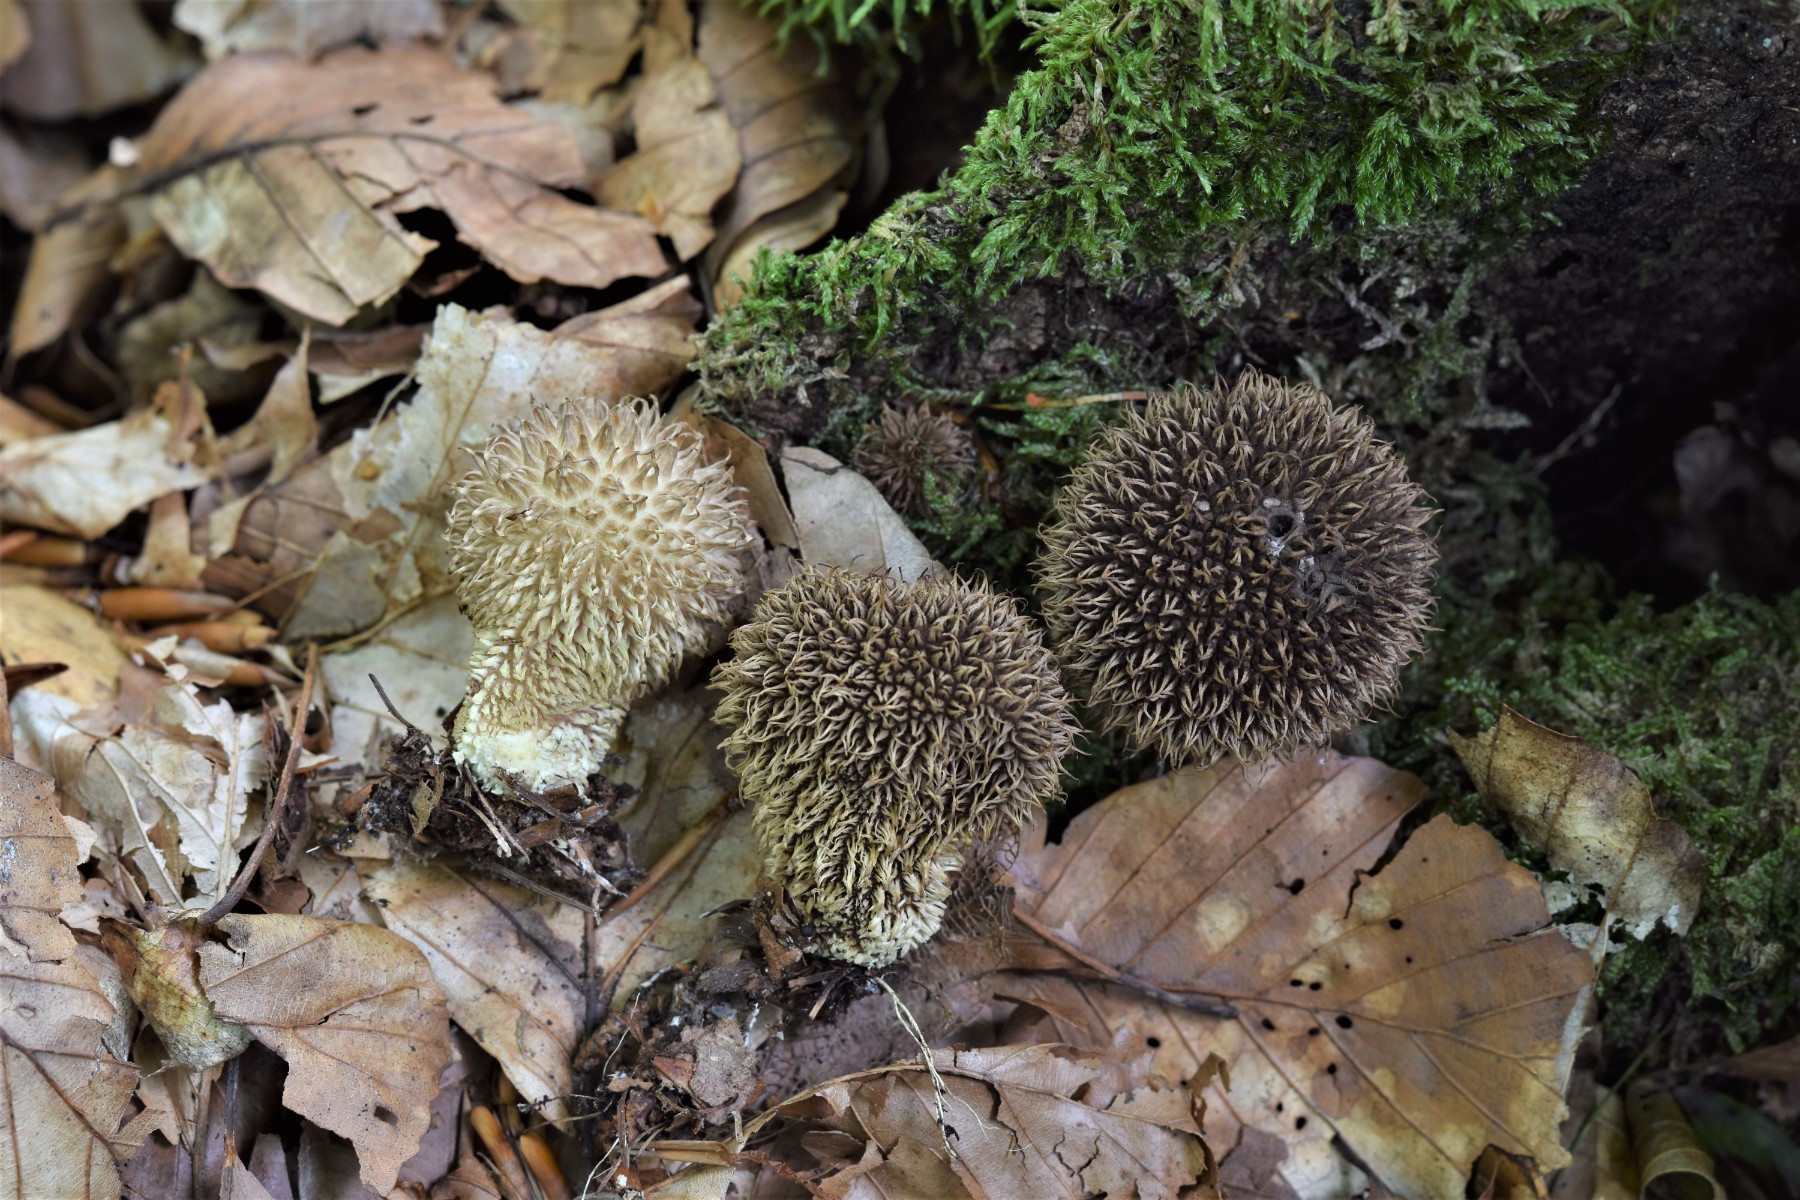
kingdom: Fungi
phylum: Basidiomycota
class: Agaricomycetes
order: Agaricales
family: Lycoperdaceae
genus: Lycoperdon
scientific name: Lycoperdon echinatum
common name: pindsvine-støvbold
